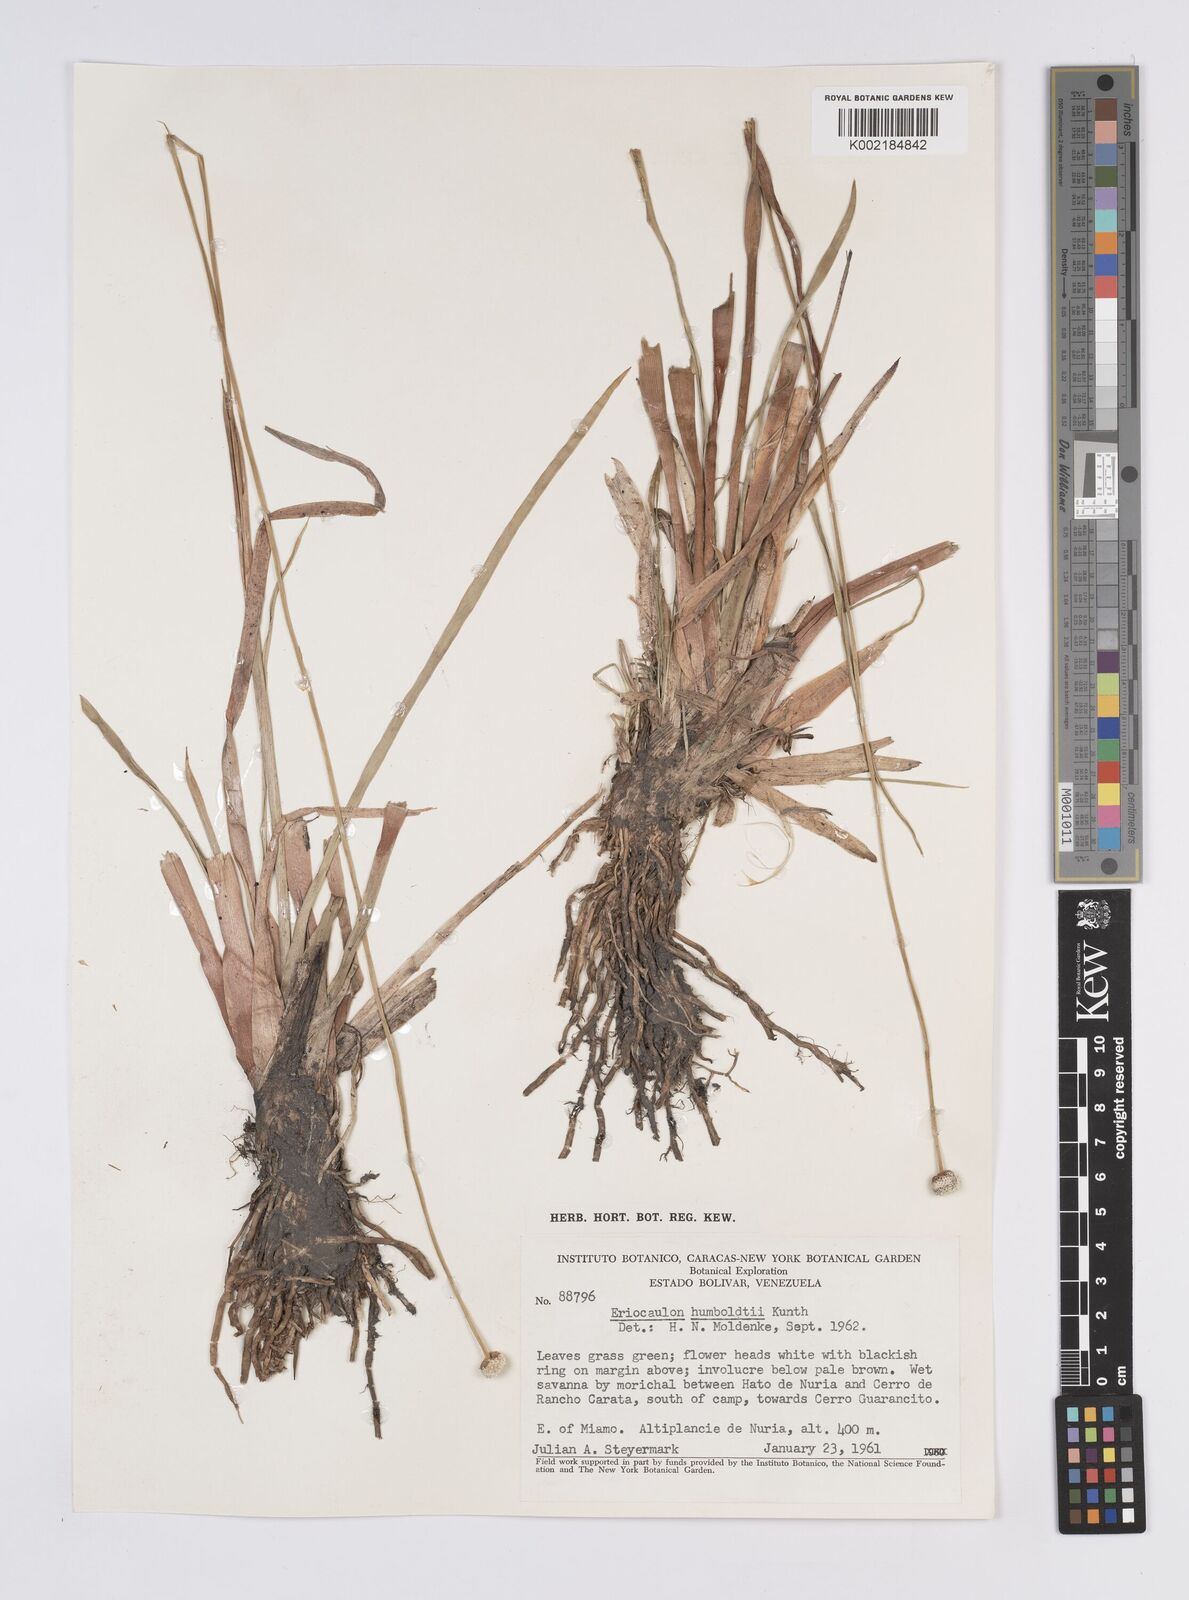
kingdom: Plantae
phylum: Tracheophyta
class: Liliopsida
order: Poales
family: Eriocaulaceae
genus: Eriocaulon
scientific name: Eriocaulon humboldtii
